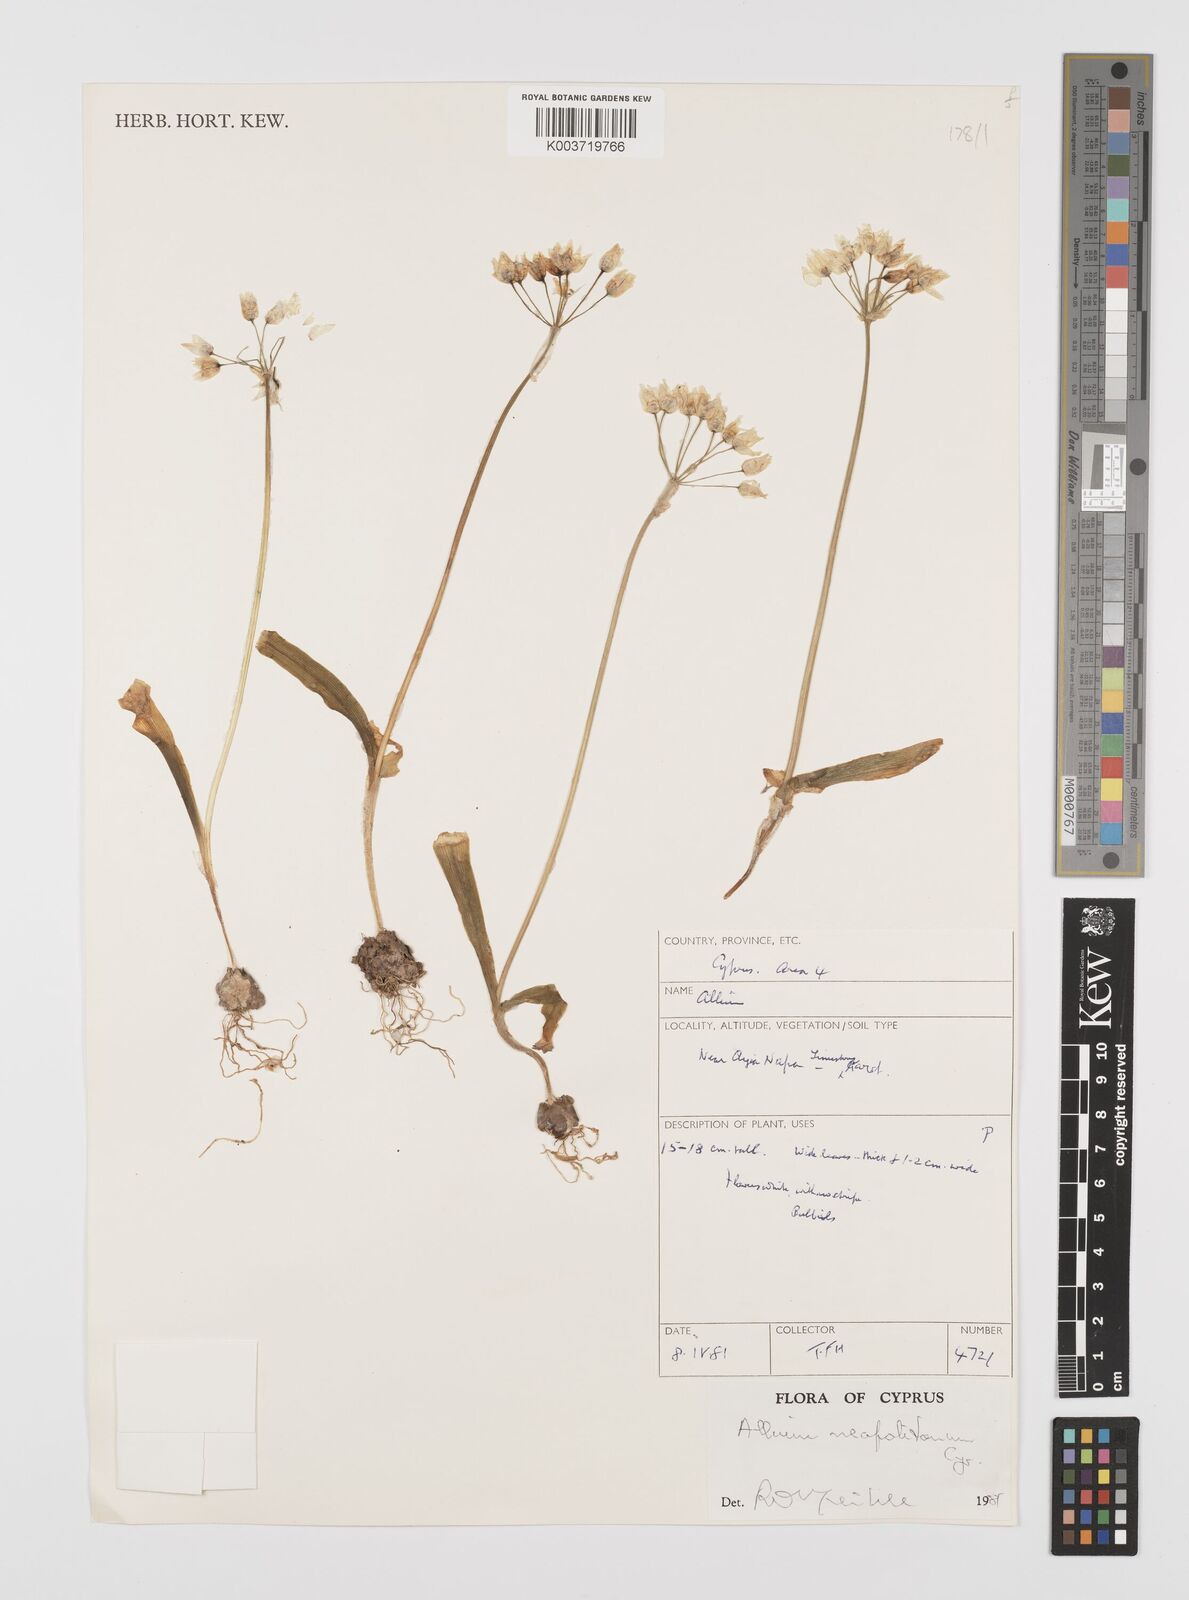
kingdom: Plantae
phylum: Tracheophyta
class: Liliopsida
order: Asparagales
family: Amaryllidaceae
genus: Allium
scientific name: Allium neapolitanum
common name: Neapolitan garlic
